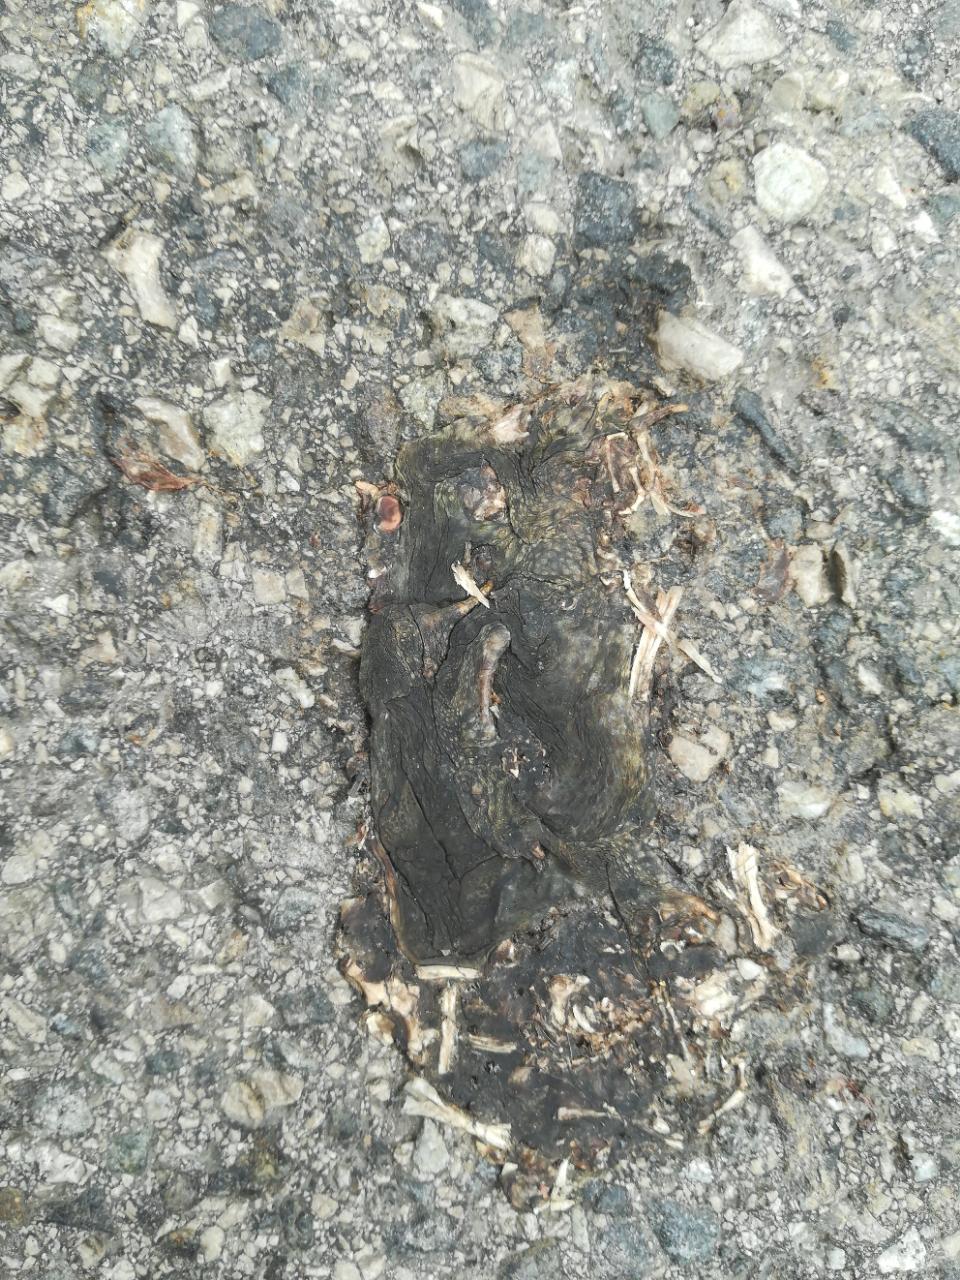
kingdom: Animalia
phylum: Chordata
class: Amphibia
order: Anura
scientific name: Anura
